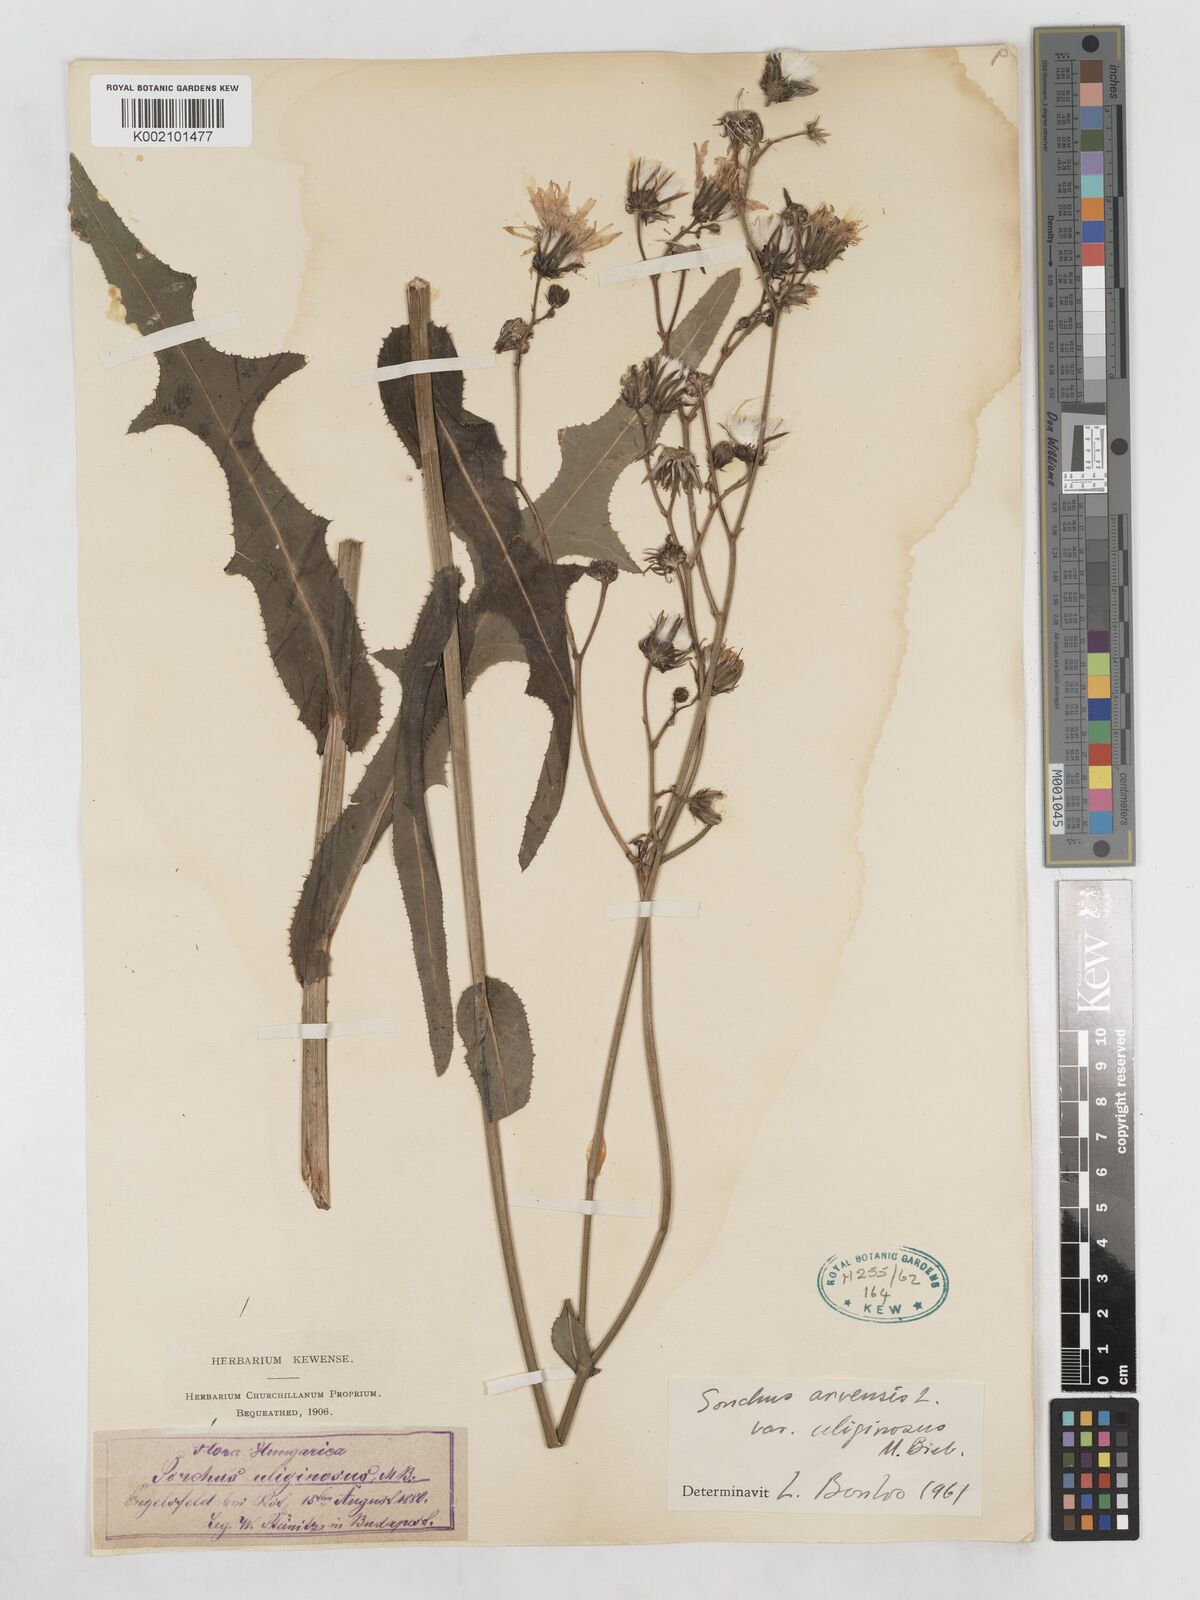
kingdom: Plantae
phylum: Tracheophyta
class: Magnoliopsida
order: Asterales
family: Asteraceae
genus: Sonchus
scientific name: Sonchus arvensis
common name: Perennial sow-thistle
